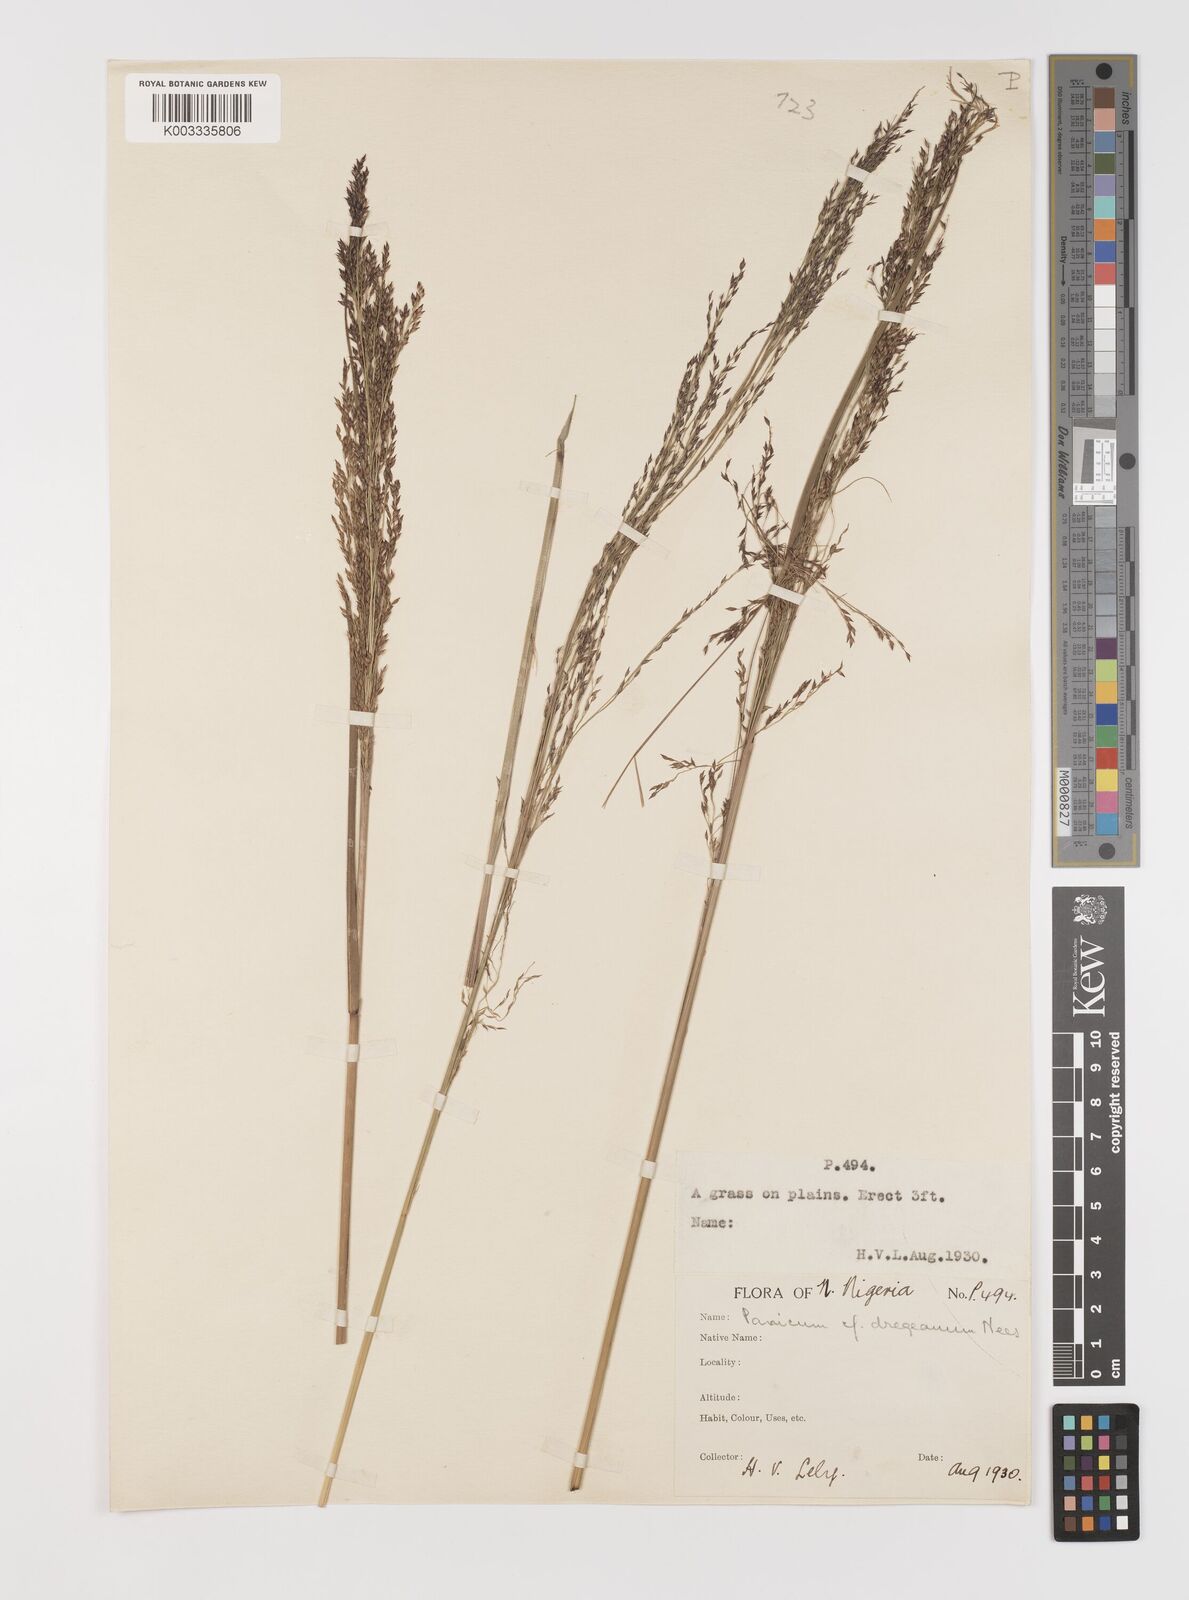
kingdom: Plantae
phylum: Tracheophyta
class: Liliopsida
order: Poales
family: Poaceae
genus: Panicum
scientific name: Panicum fluviicola
